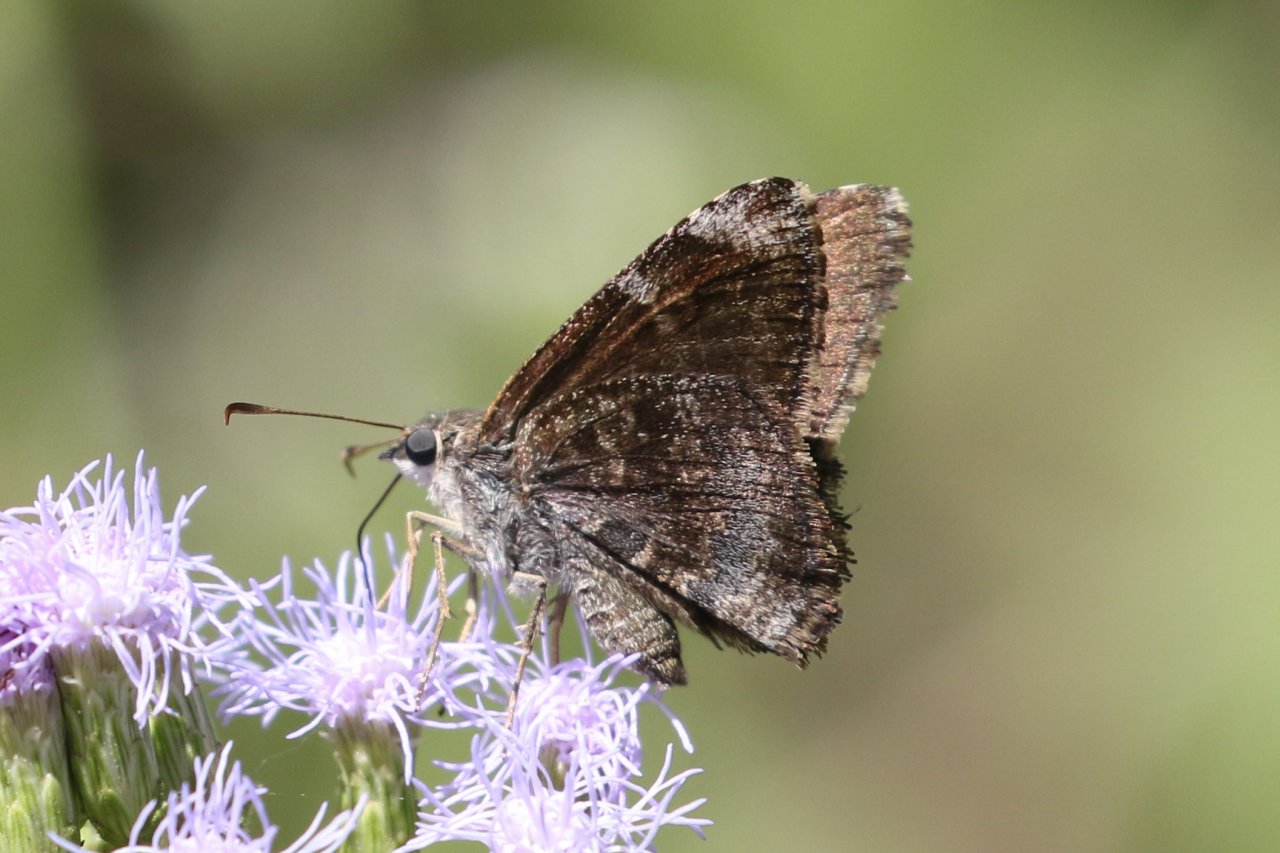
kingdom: Animalia
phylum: Arthropoda
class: Insecta
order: Lepidoptera
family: Hesperiidae
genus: Caicella
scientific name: Caicella calchas
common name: Mimosa Skipper
